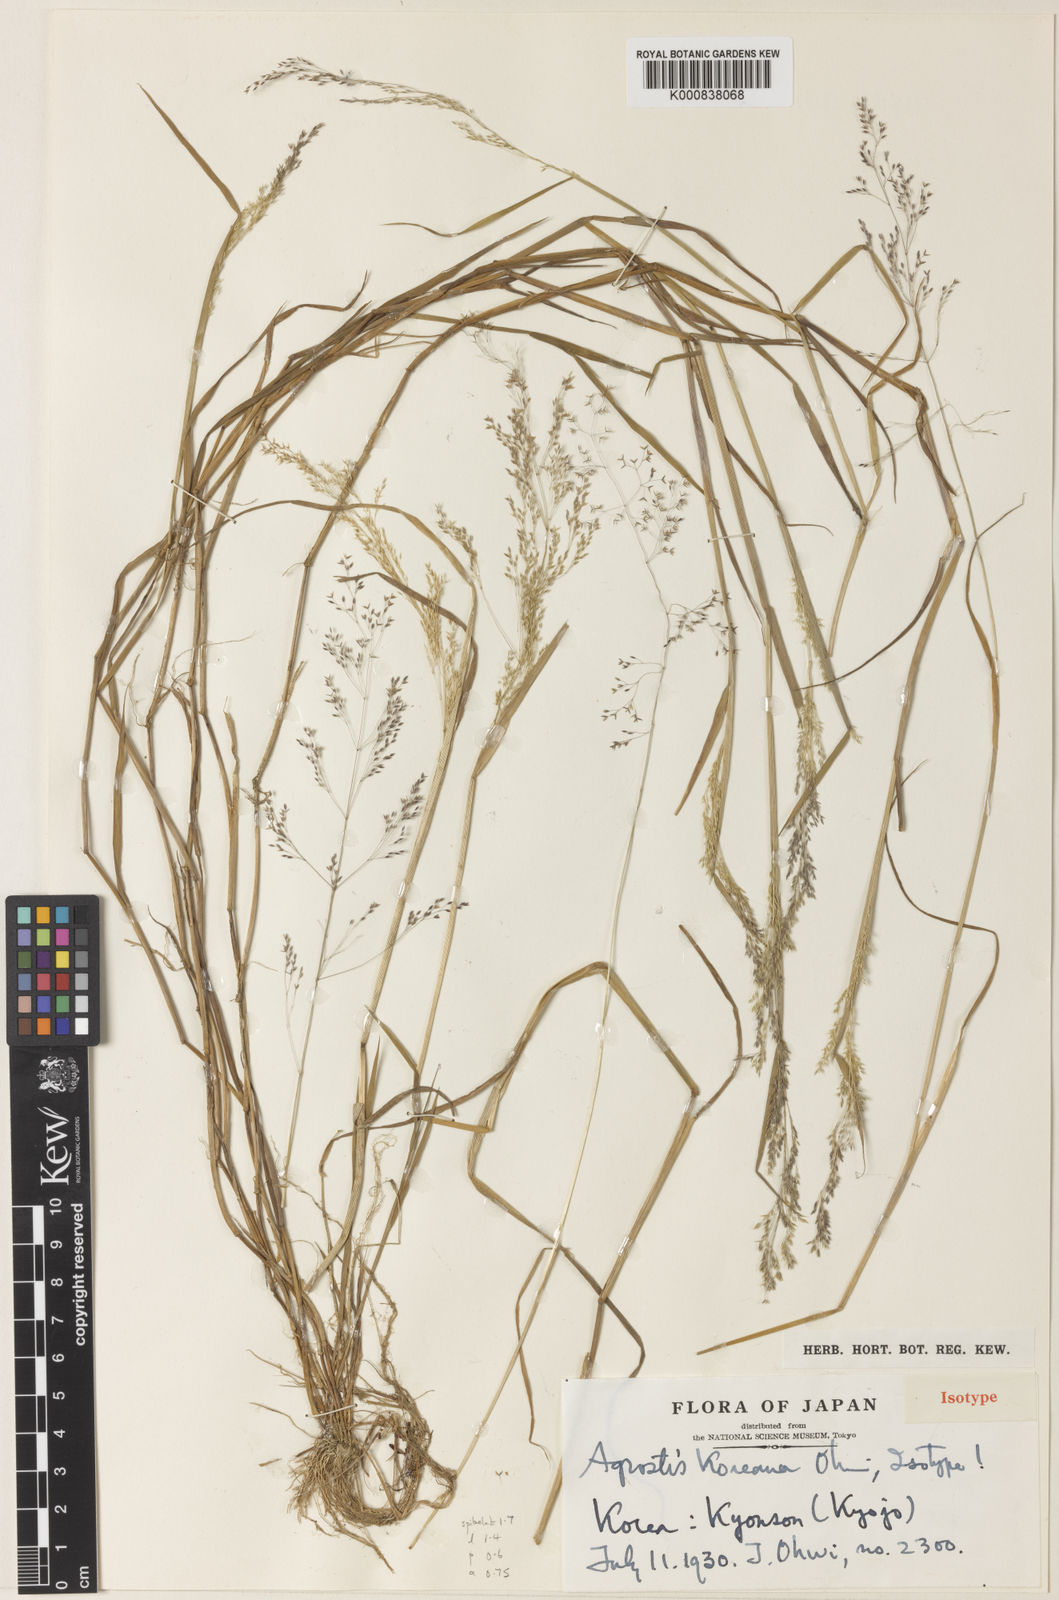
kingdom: Plantae
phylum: Tracheophyta
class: Liliopsida
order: Poales
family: Poaceae
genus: Agrostis
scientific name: Agrostis capillaris
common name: Colonial bentgrass
